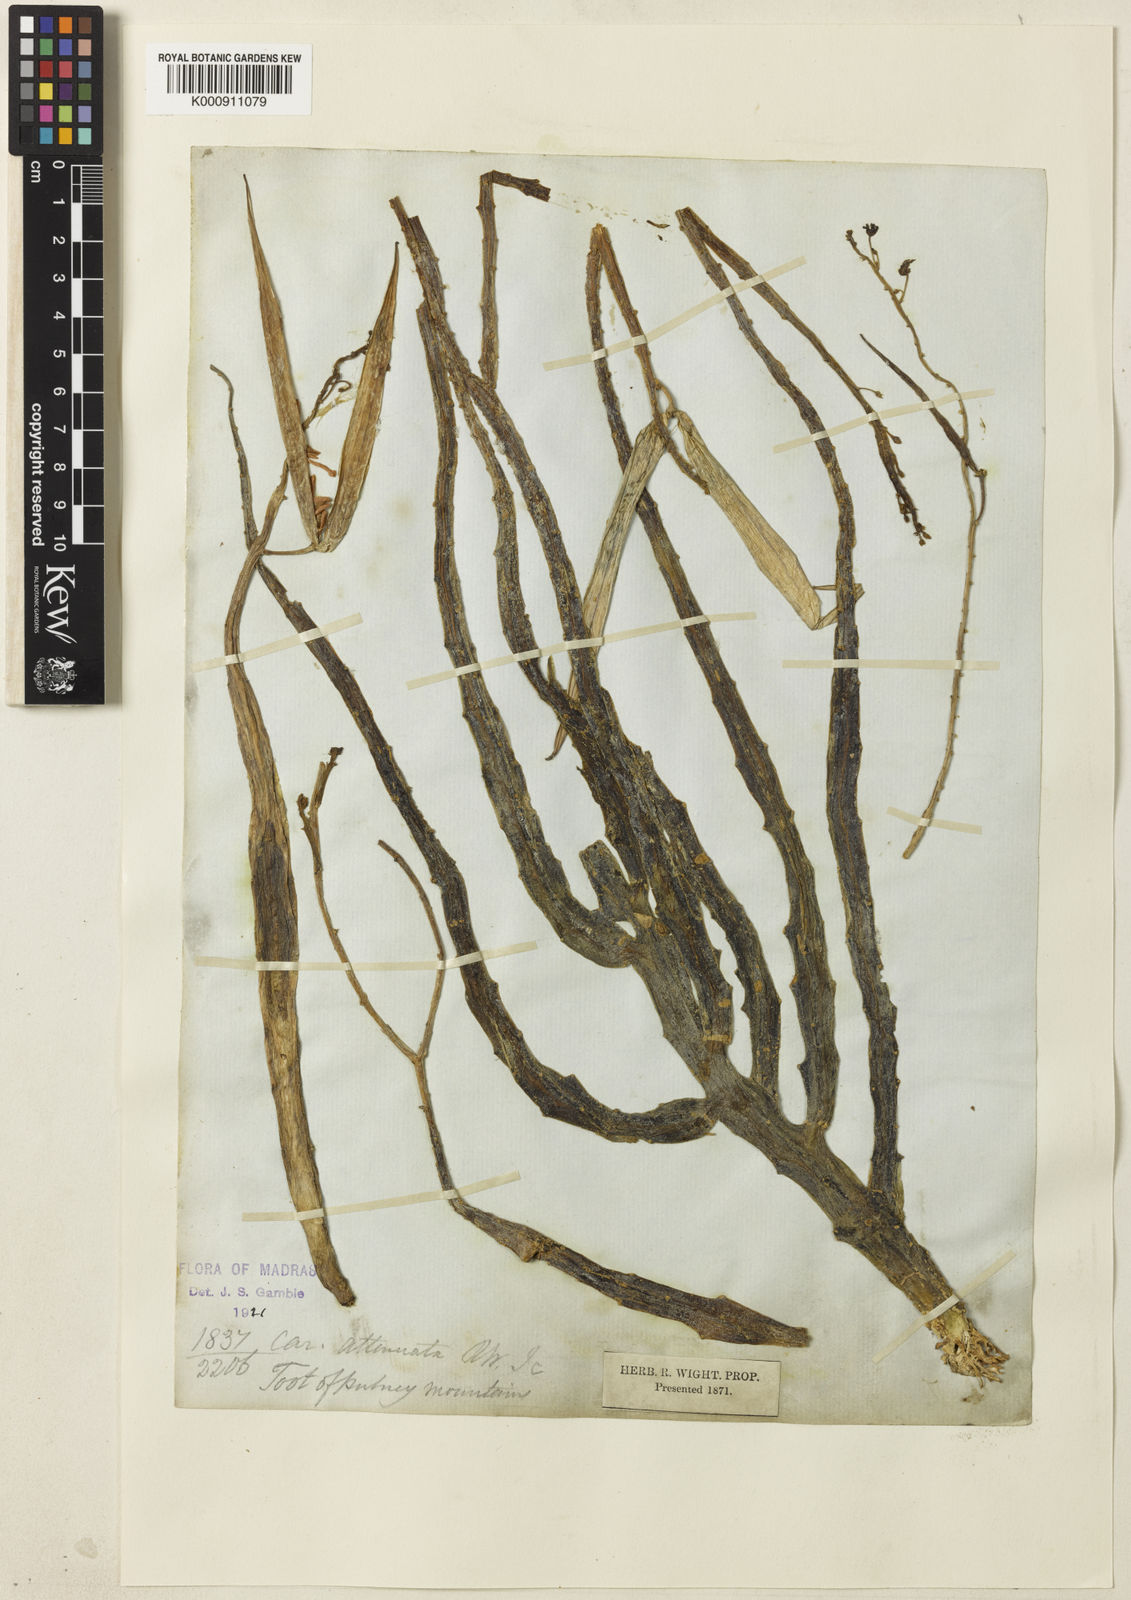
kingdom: Plantae
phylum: Tracheophyta
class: Magnoliopsida
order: Gentianales
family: Apocynaceae
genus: Ceropegia
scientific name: Ceropegia adscendens
